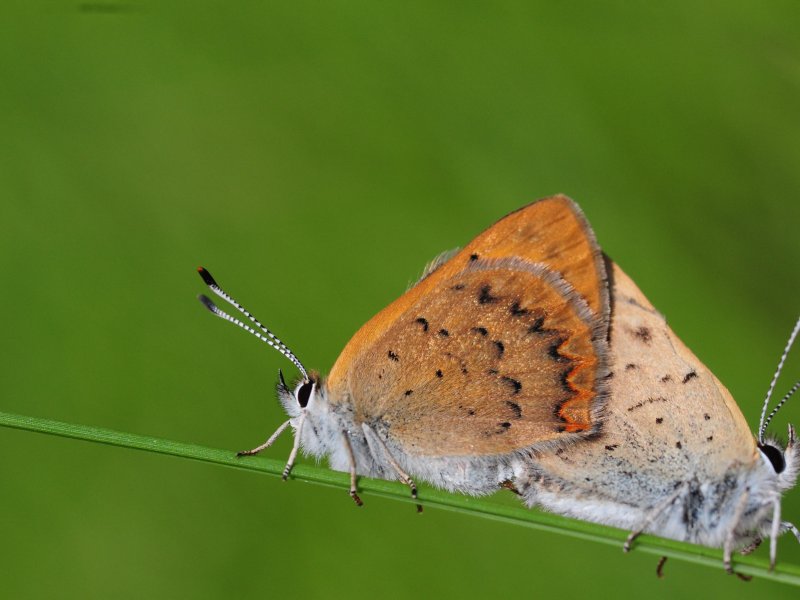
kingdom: Animalia
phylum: Arthropoda
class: Insecta
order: Lepidoptera
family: Lycaenidae
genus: Epidemia
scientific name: Epidemia dorcas
